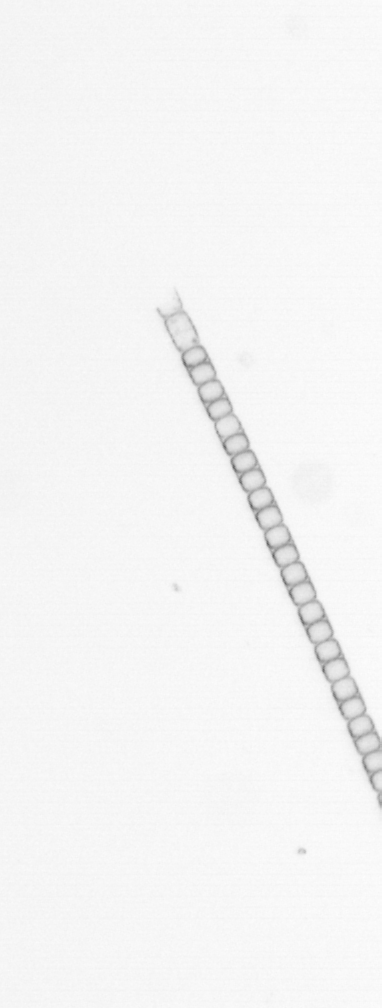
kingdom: Chromista
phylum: Ochrophyta
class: Bacillariophyceae
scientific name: Bacillariophyceae
